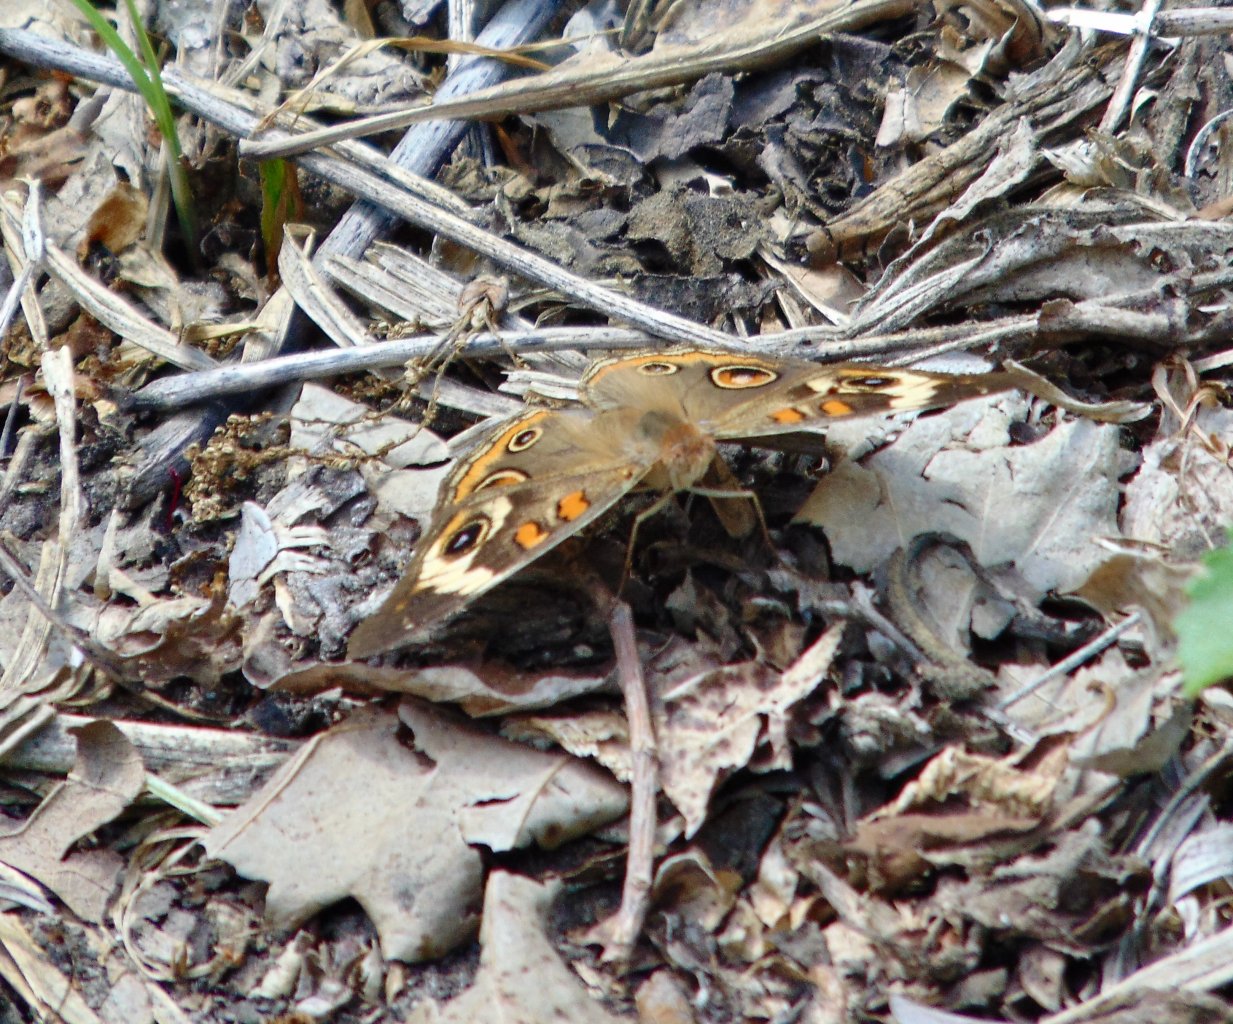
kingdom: Animalia
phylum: Arthropoda
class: Insecta
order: Lepidoptera
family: Nymphalidae
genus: Junonia
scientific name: Junonia coenia
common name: Common Buckeye
